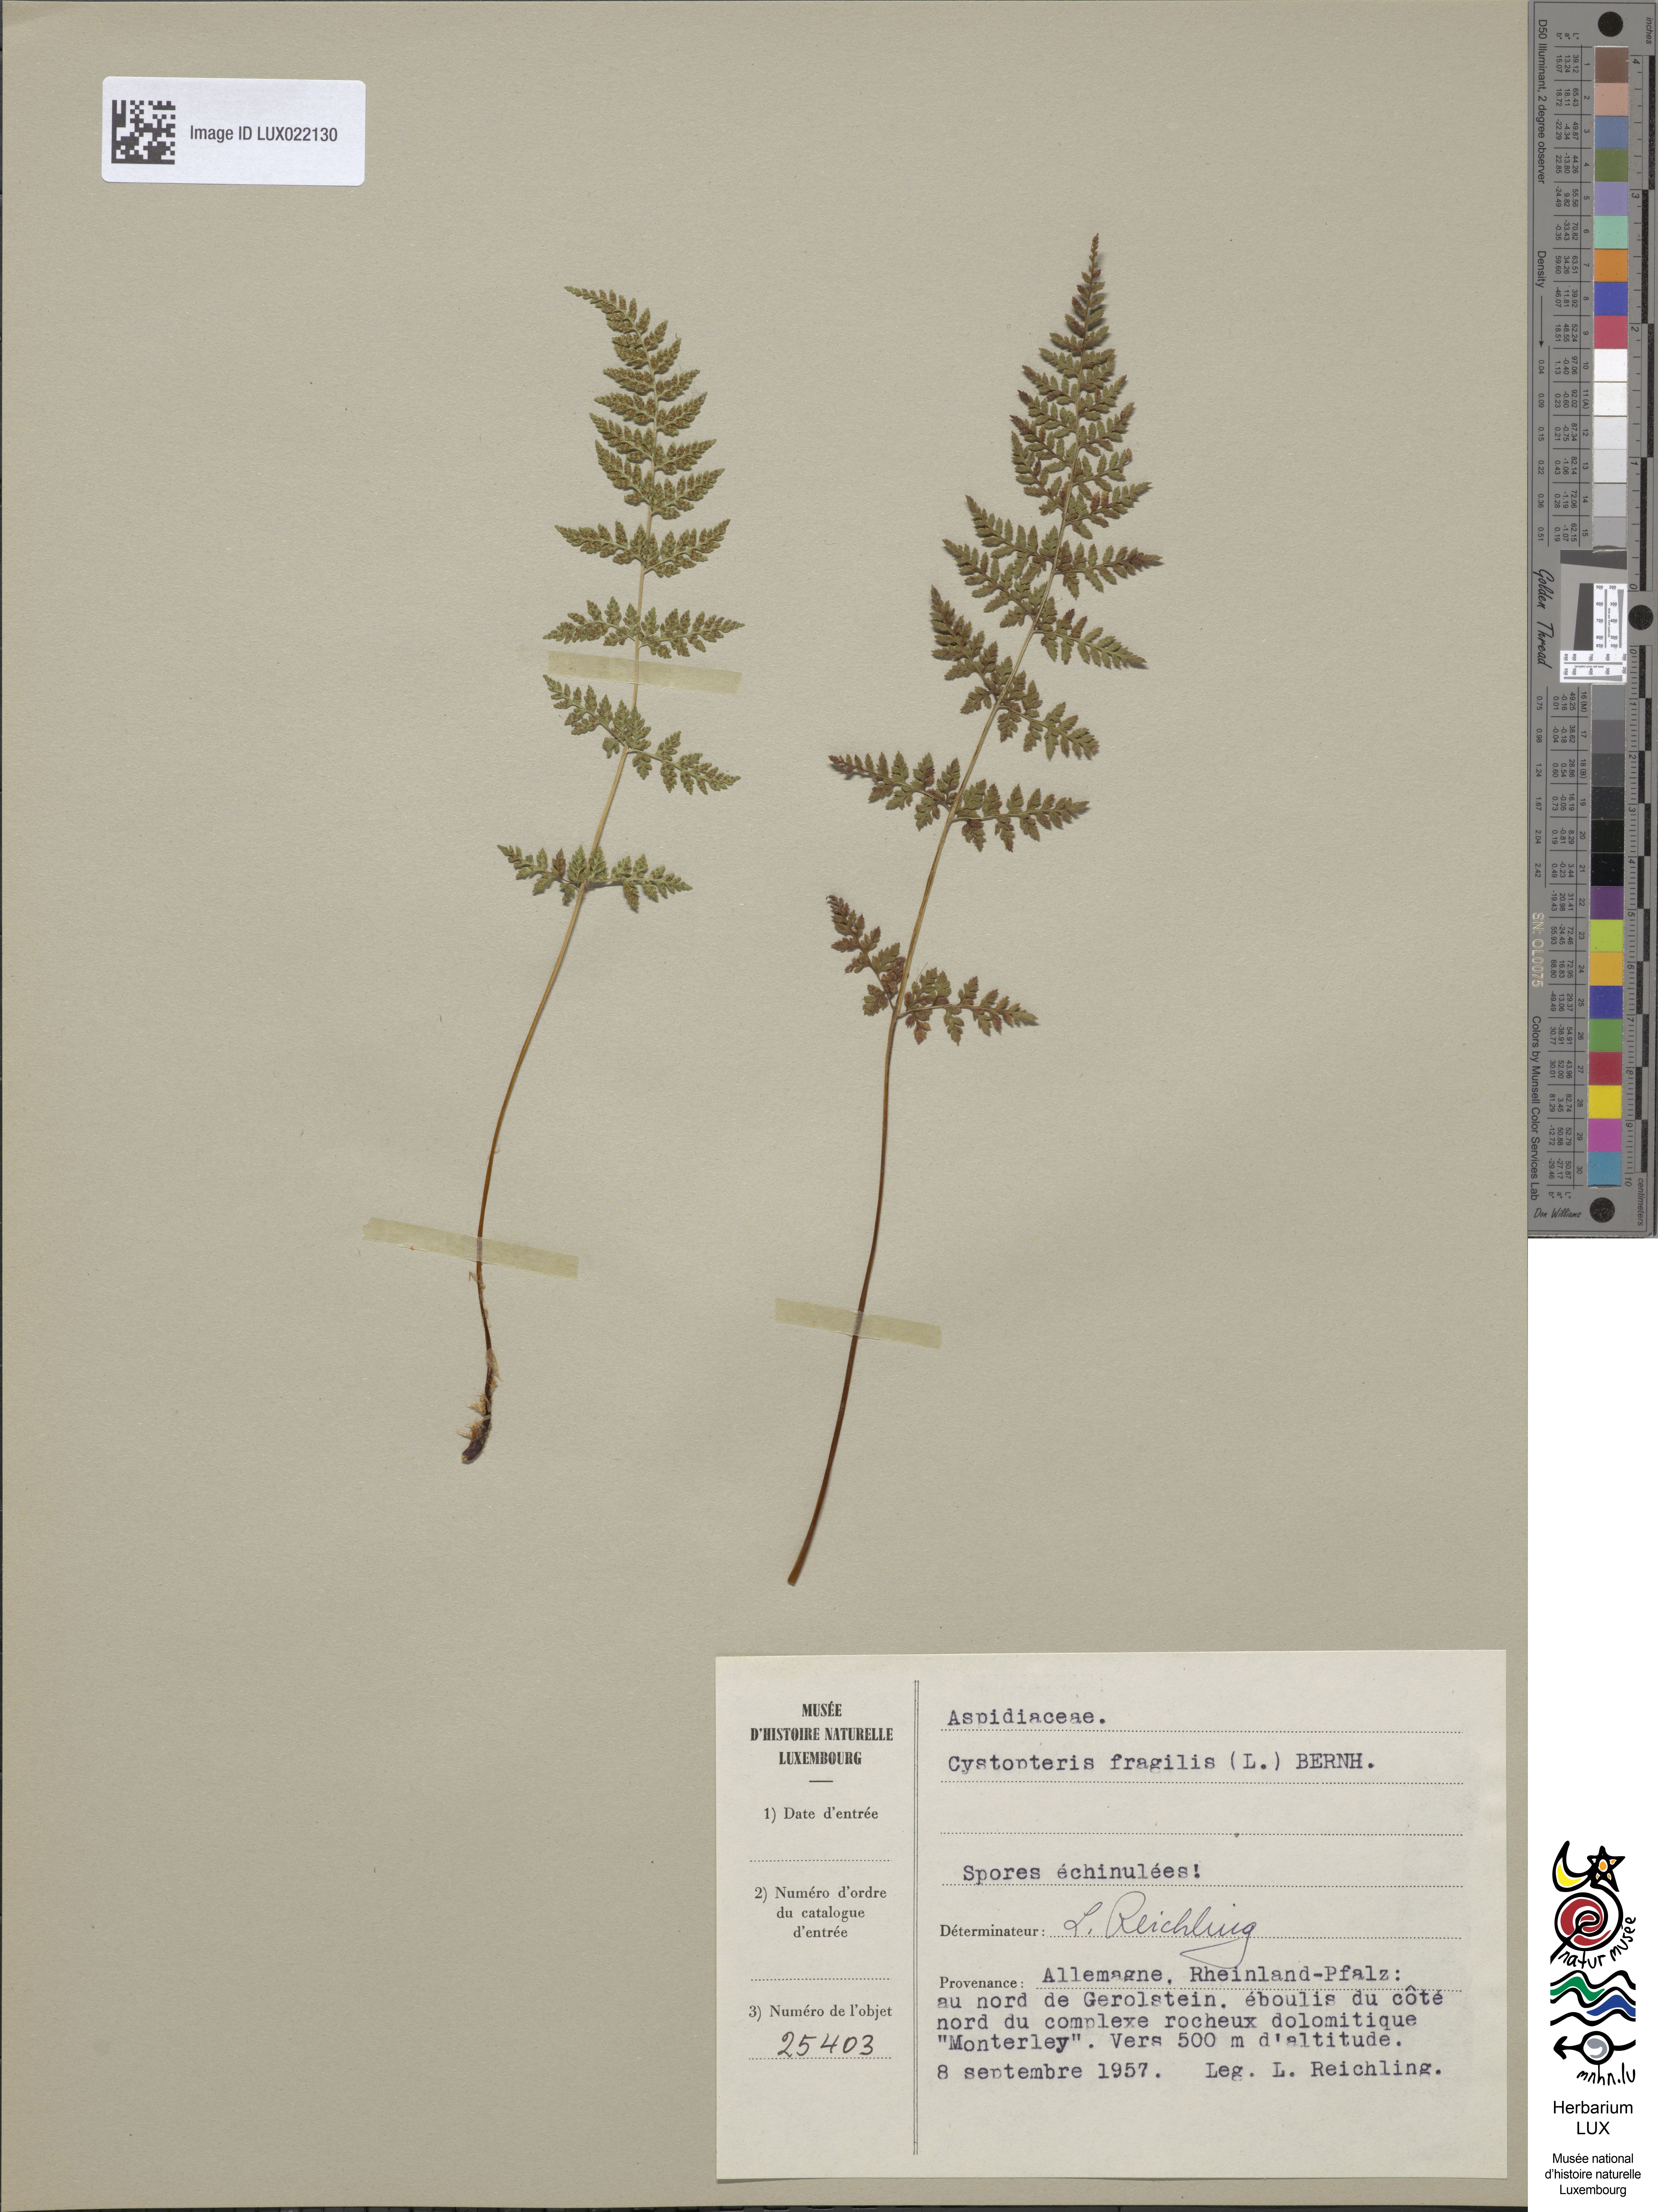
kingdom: Plantae
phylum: Tracheophyta
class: Polypodiopsida
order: Polypodiales
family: Cystopteridaceae
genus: Cystopteris
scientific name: Cystopteris fragilis
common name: Brittle bladder fern
